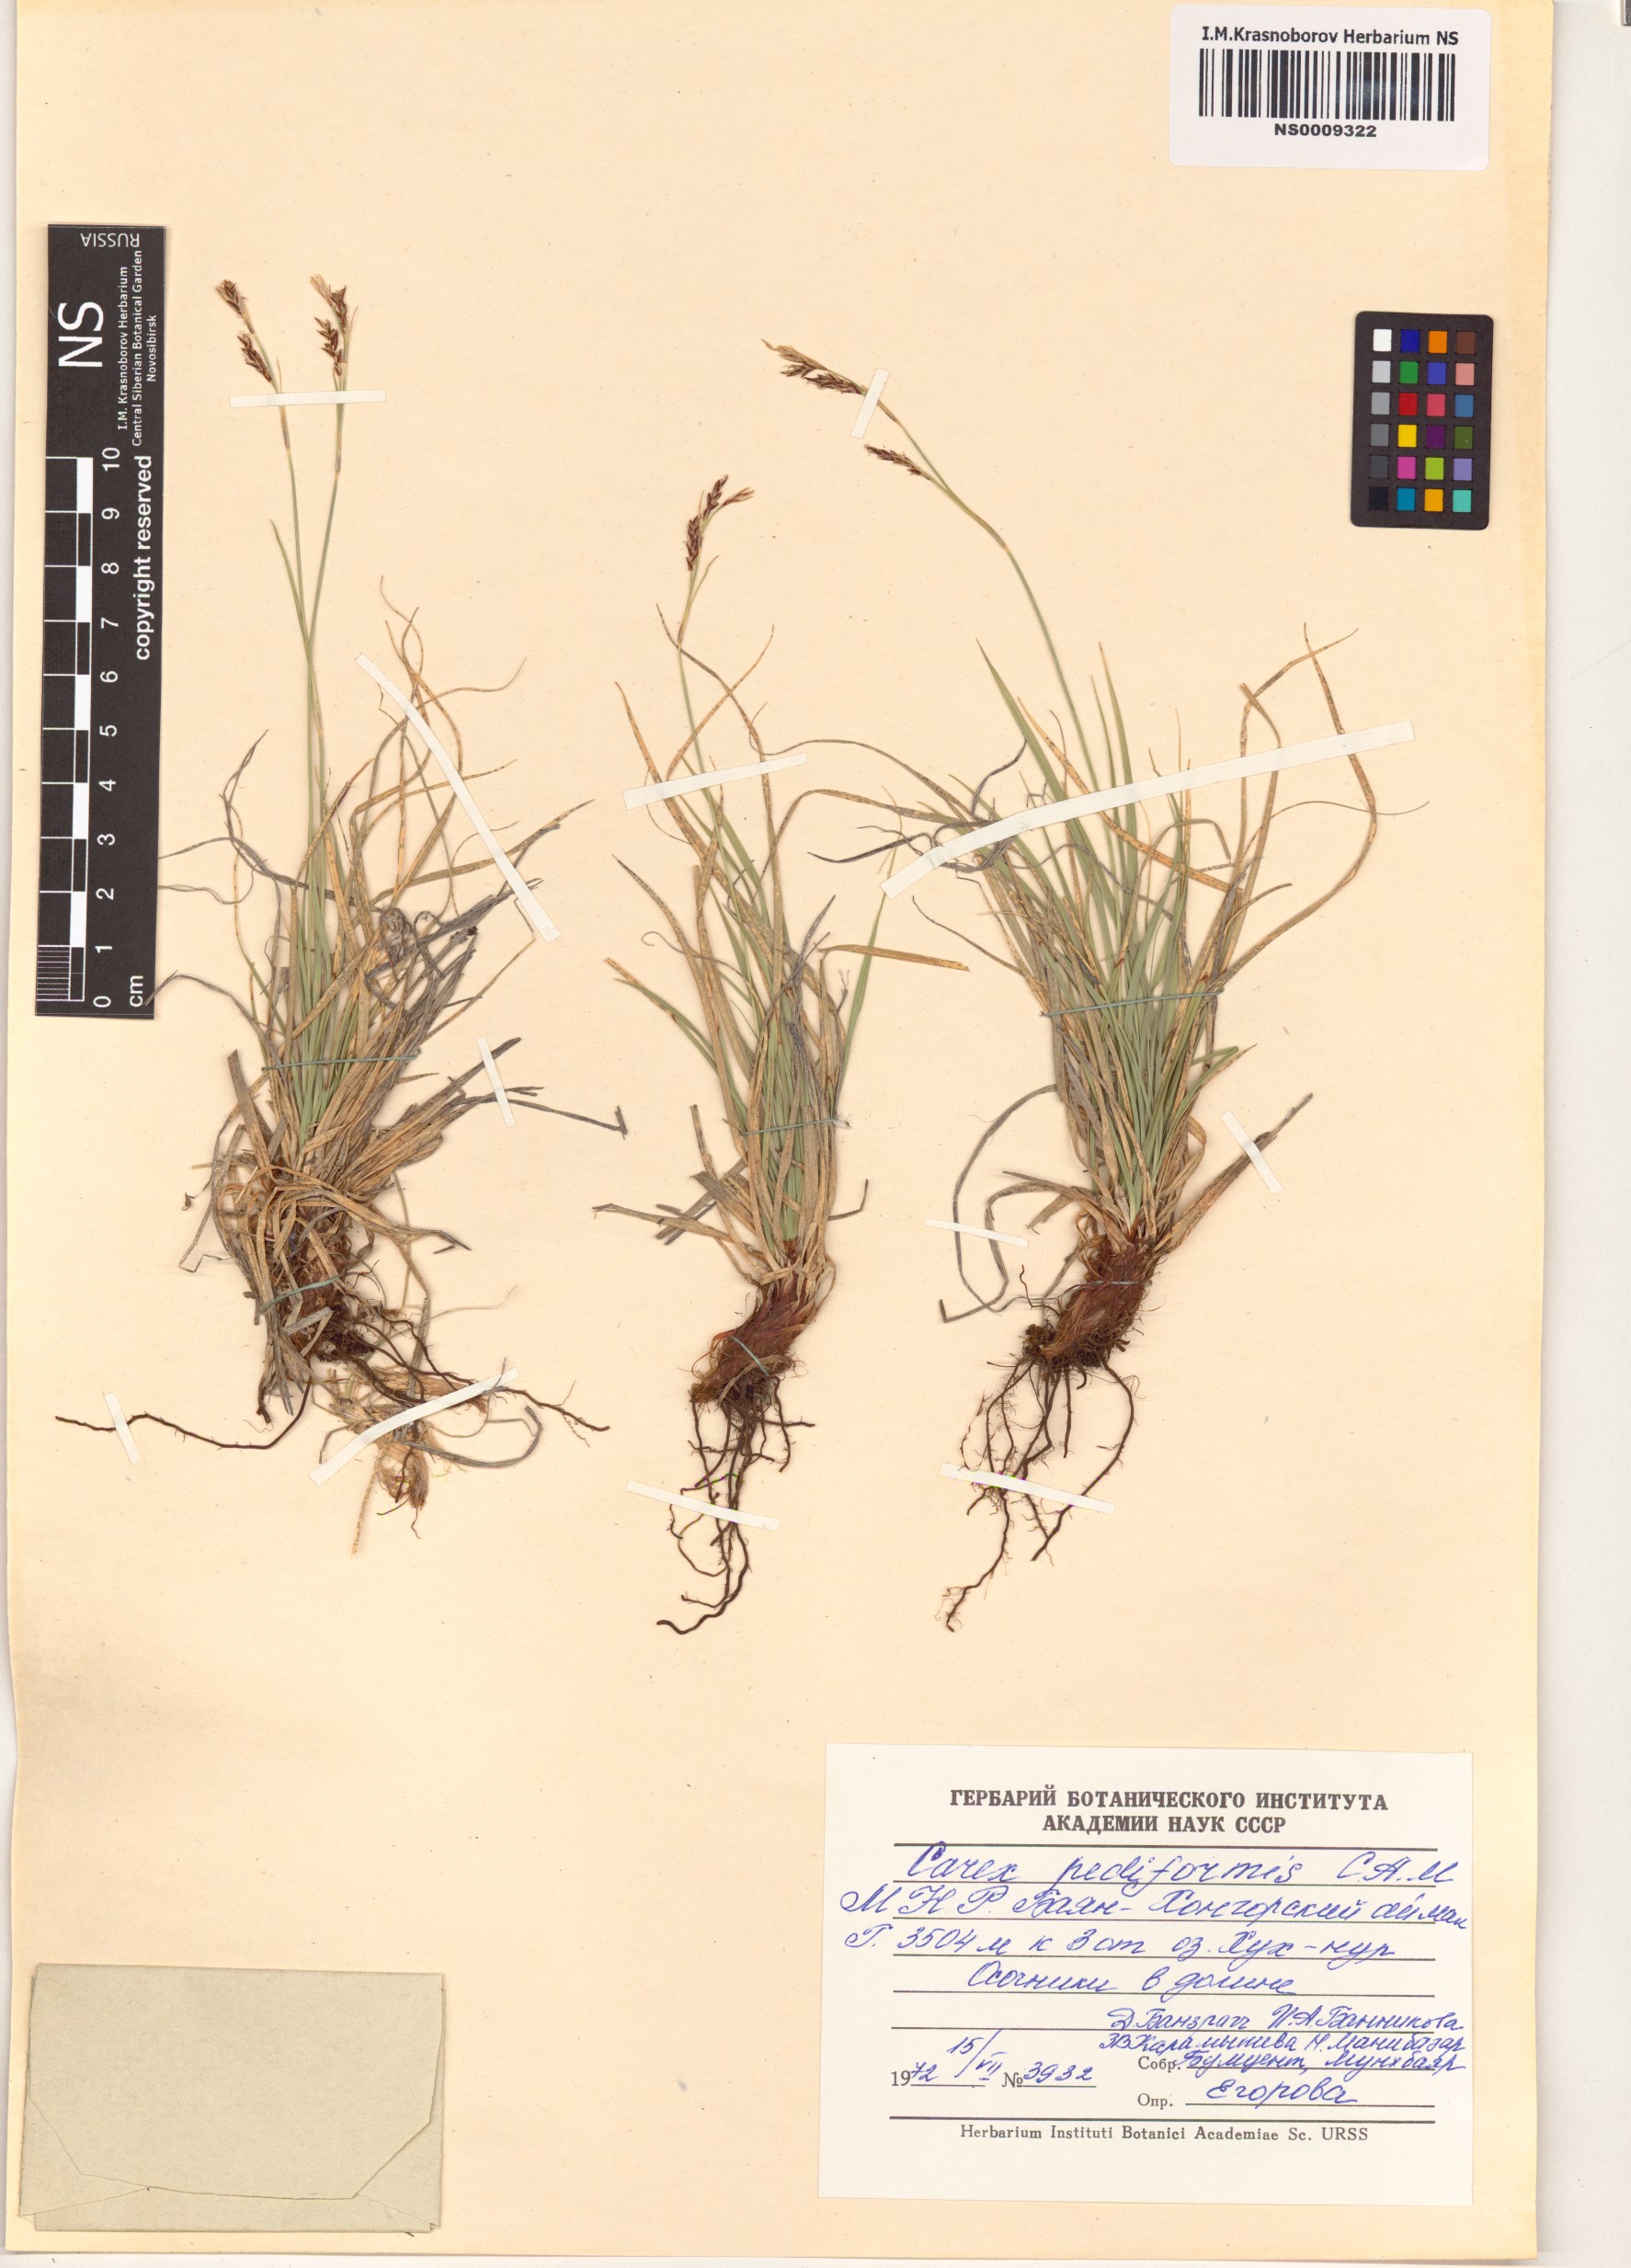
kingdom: Plantae
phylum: Tracheophyta
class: Liliopsida
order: Poales
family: Cyperaceae
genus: Carex
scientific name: Carex pediformis
